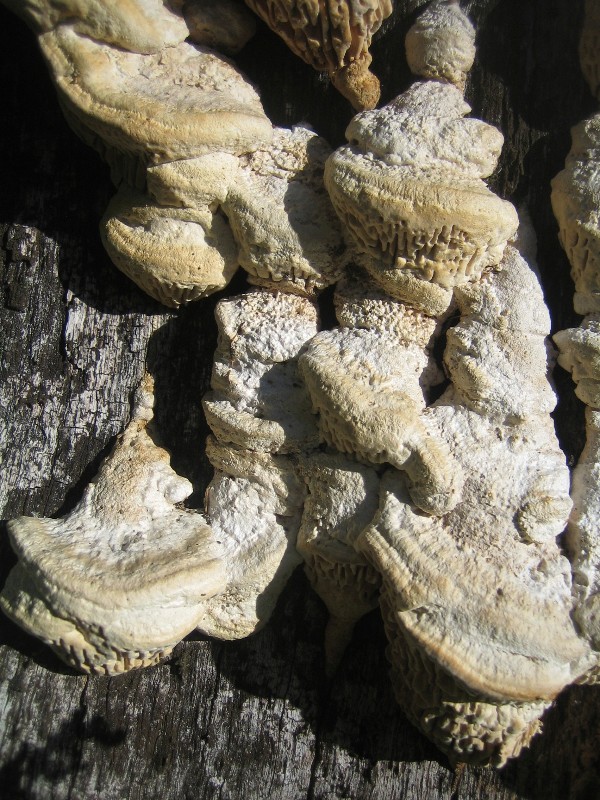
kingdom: Fungi
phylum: Basidiomycota
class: Agaricomycetes
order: Polyporales
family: Fomitopsidaceae
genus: Daedalea
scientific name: Daedalea quercina
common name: ege-labyrintsvamp
